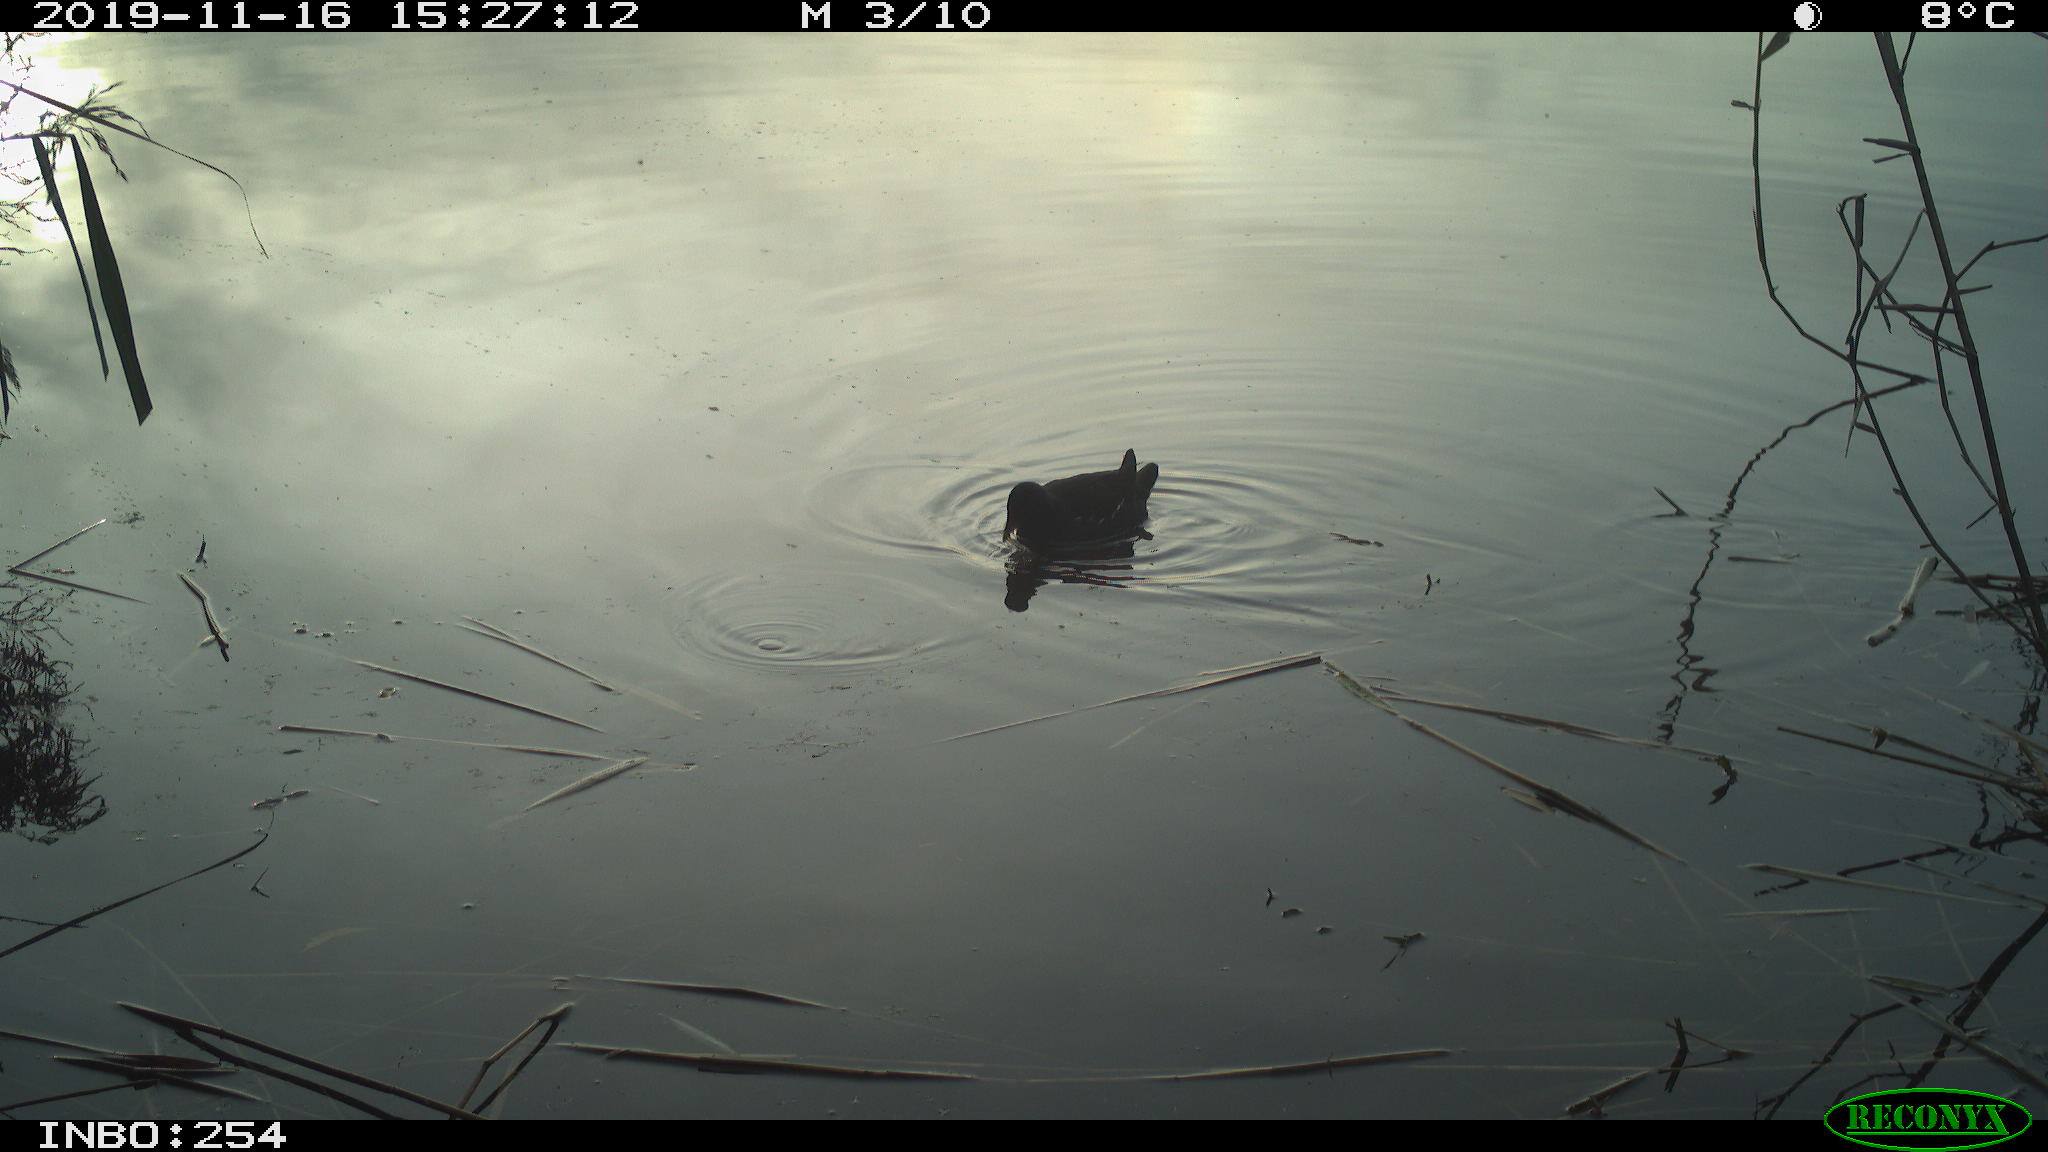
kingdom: Animalia
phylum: Chordata
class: Aves
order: Gruiformes
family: Rallidae
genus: Gallinula
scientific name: Gallinula chloropus
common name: Common moorhen
